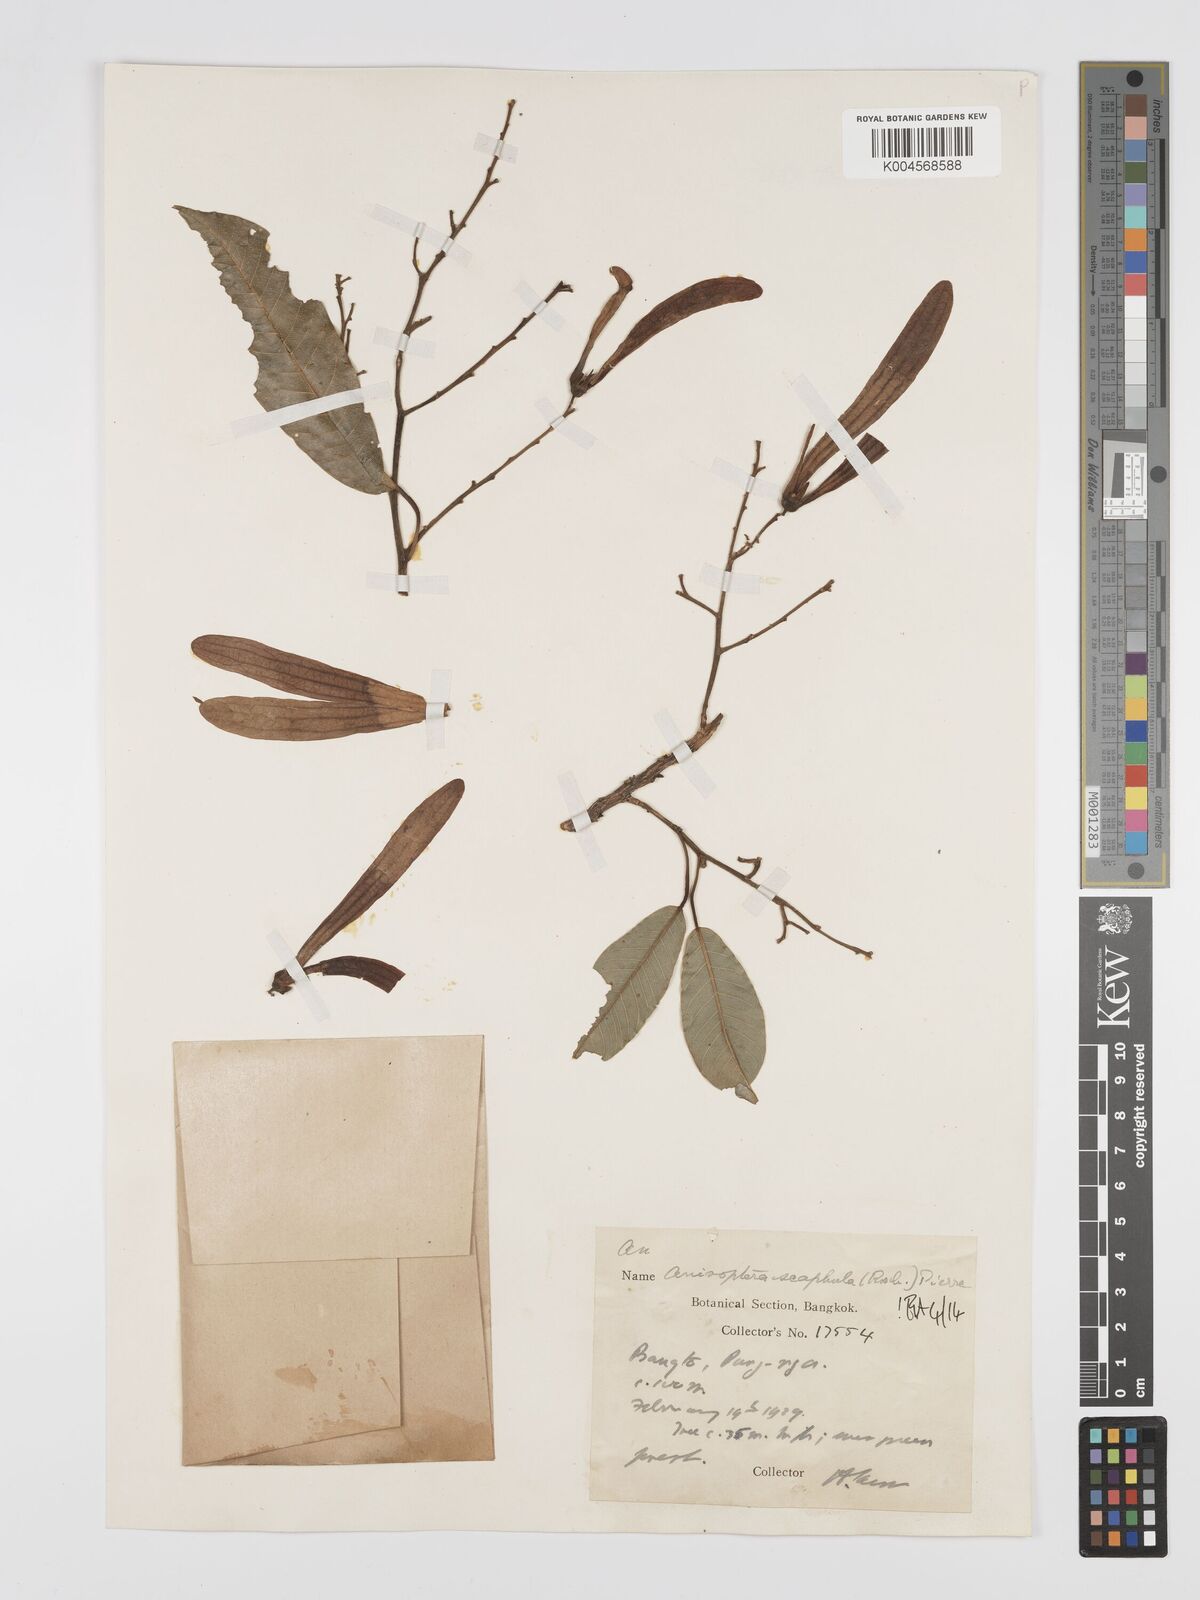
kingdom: Plantae
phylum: Tracheophyta
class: Magnoliopsida
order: Malvales
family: Dipterocarpaceae
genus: Anisoptera
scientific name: Anisoptera scaphula
